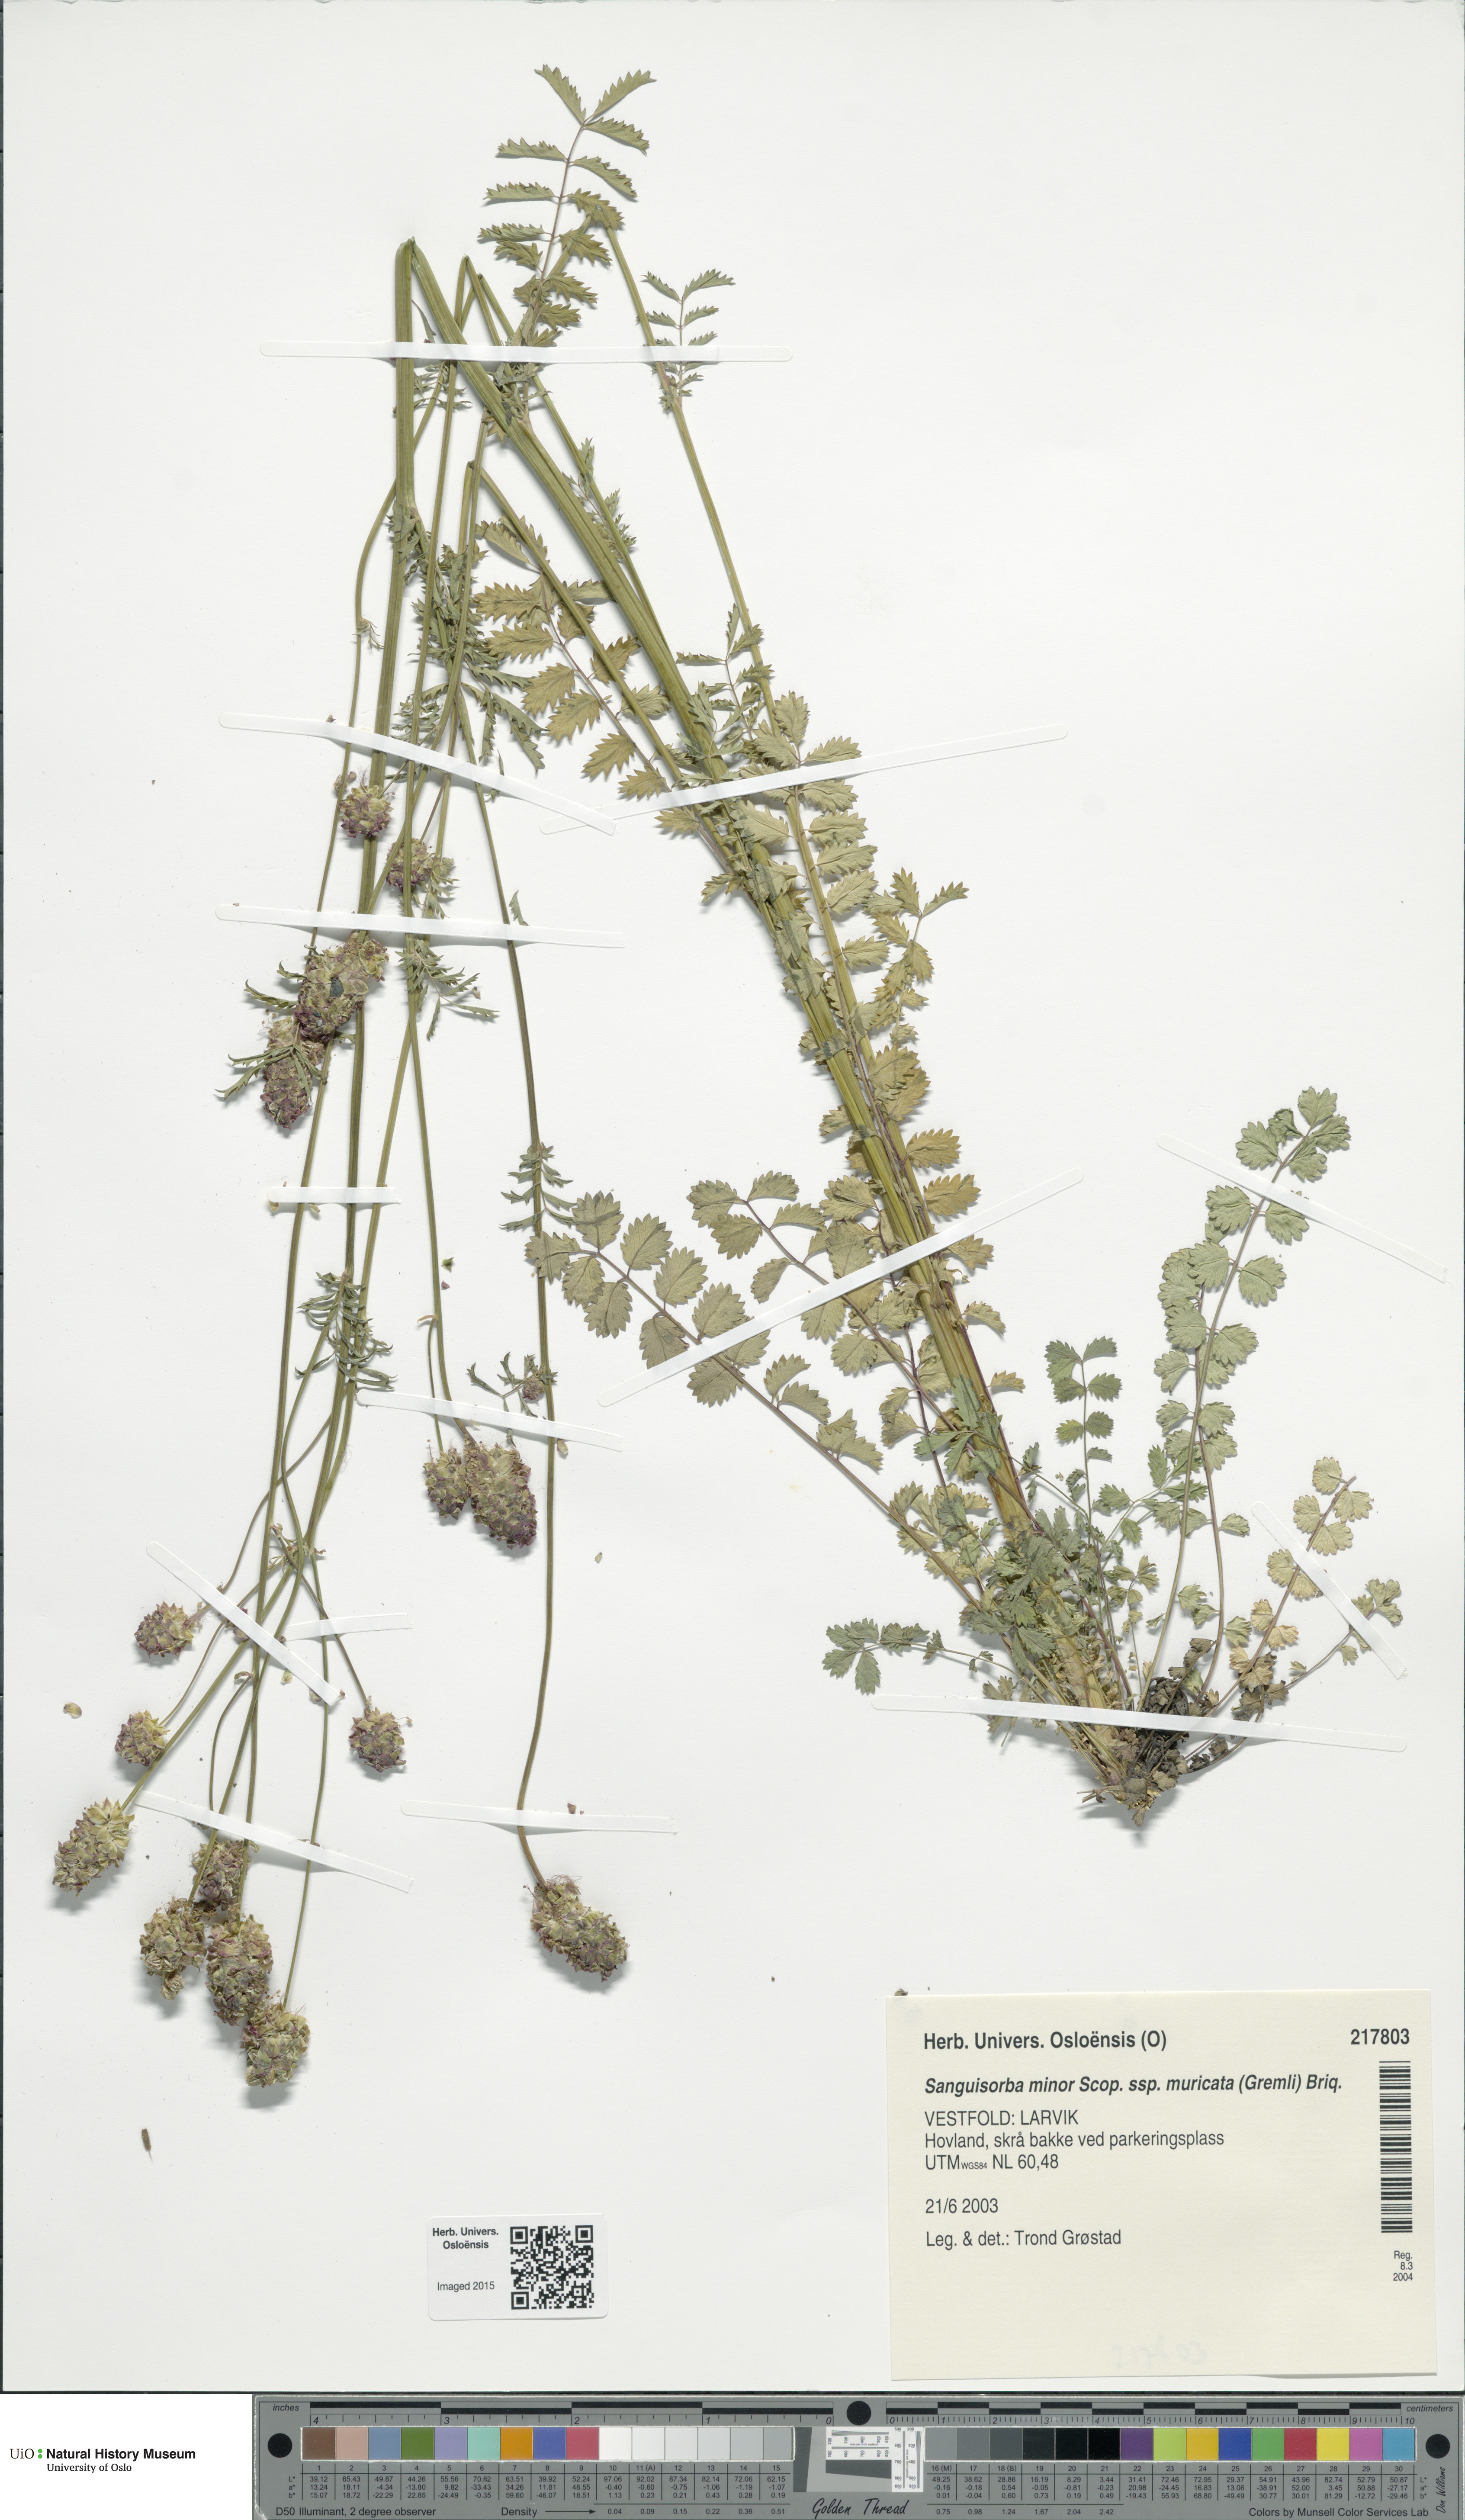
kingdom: Plantae
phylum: Tracheophyta
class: Magnoliopsida
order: Rosales
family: Rosaceae
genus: Poterium
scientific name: Poterium sanguisorba
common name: Salad burnet
